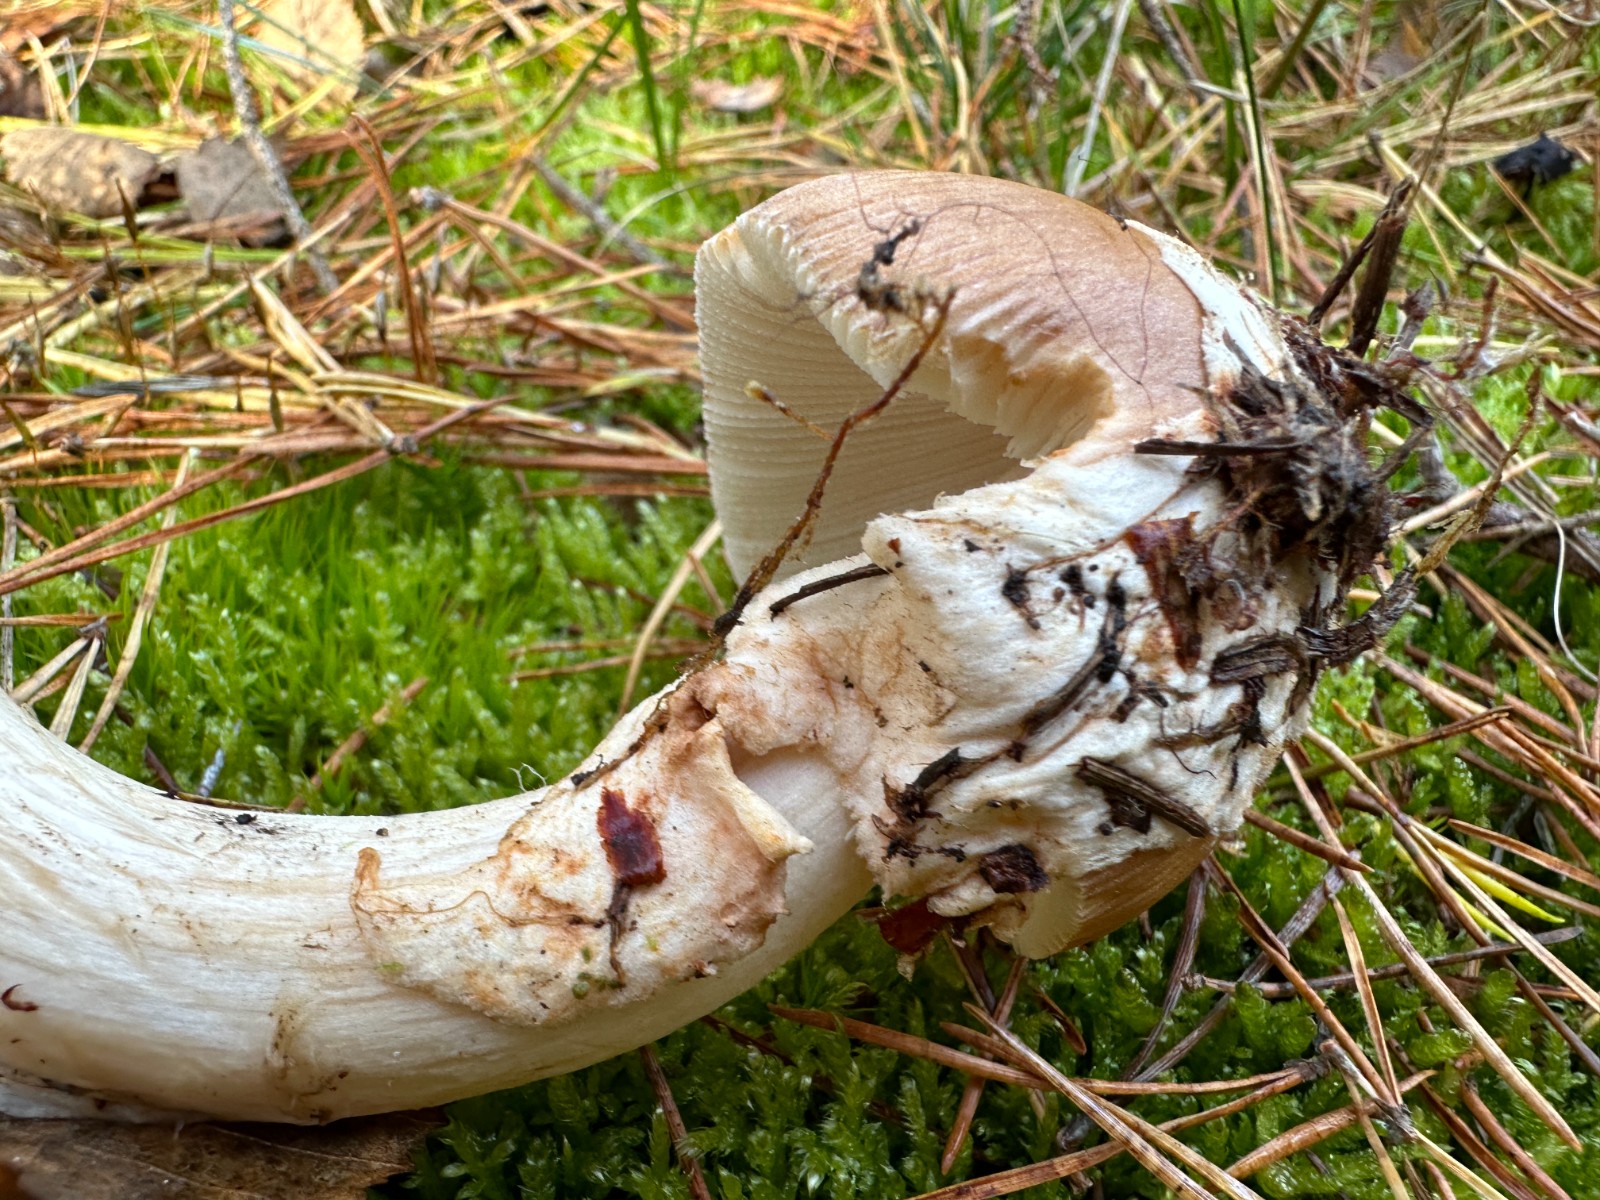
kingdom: Fungi
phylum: Basidiomycota
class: Agaricomycetes
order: Agaricales
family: Amanitaceae
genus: Amanita
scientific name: Amanita fulva
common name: brun kam-fluesvamp
